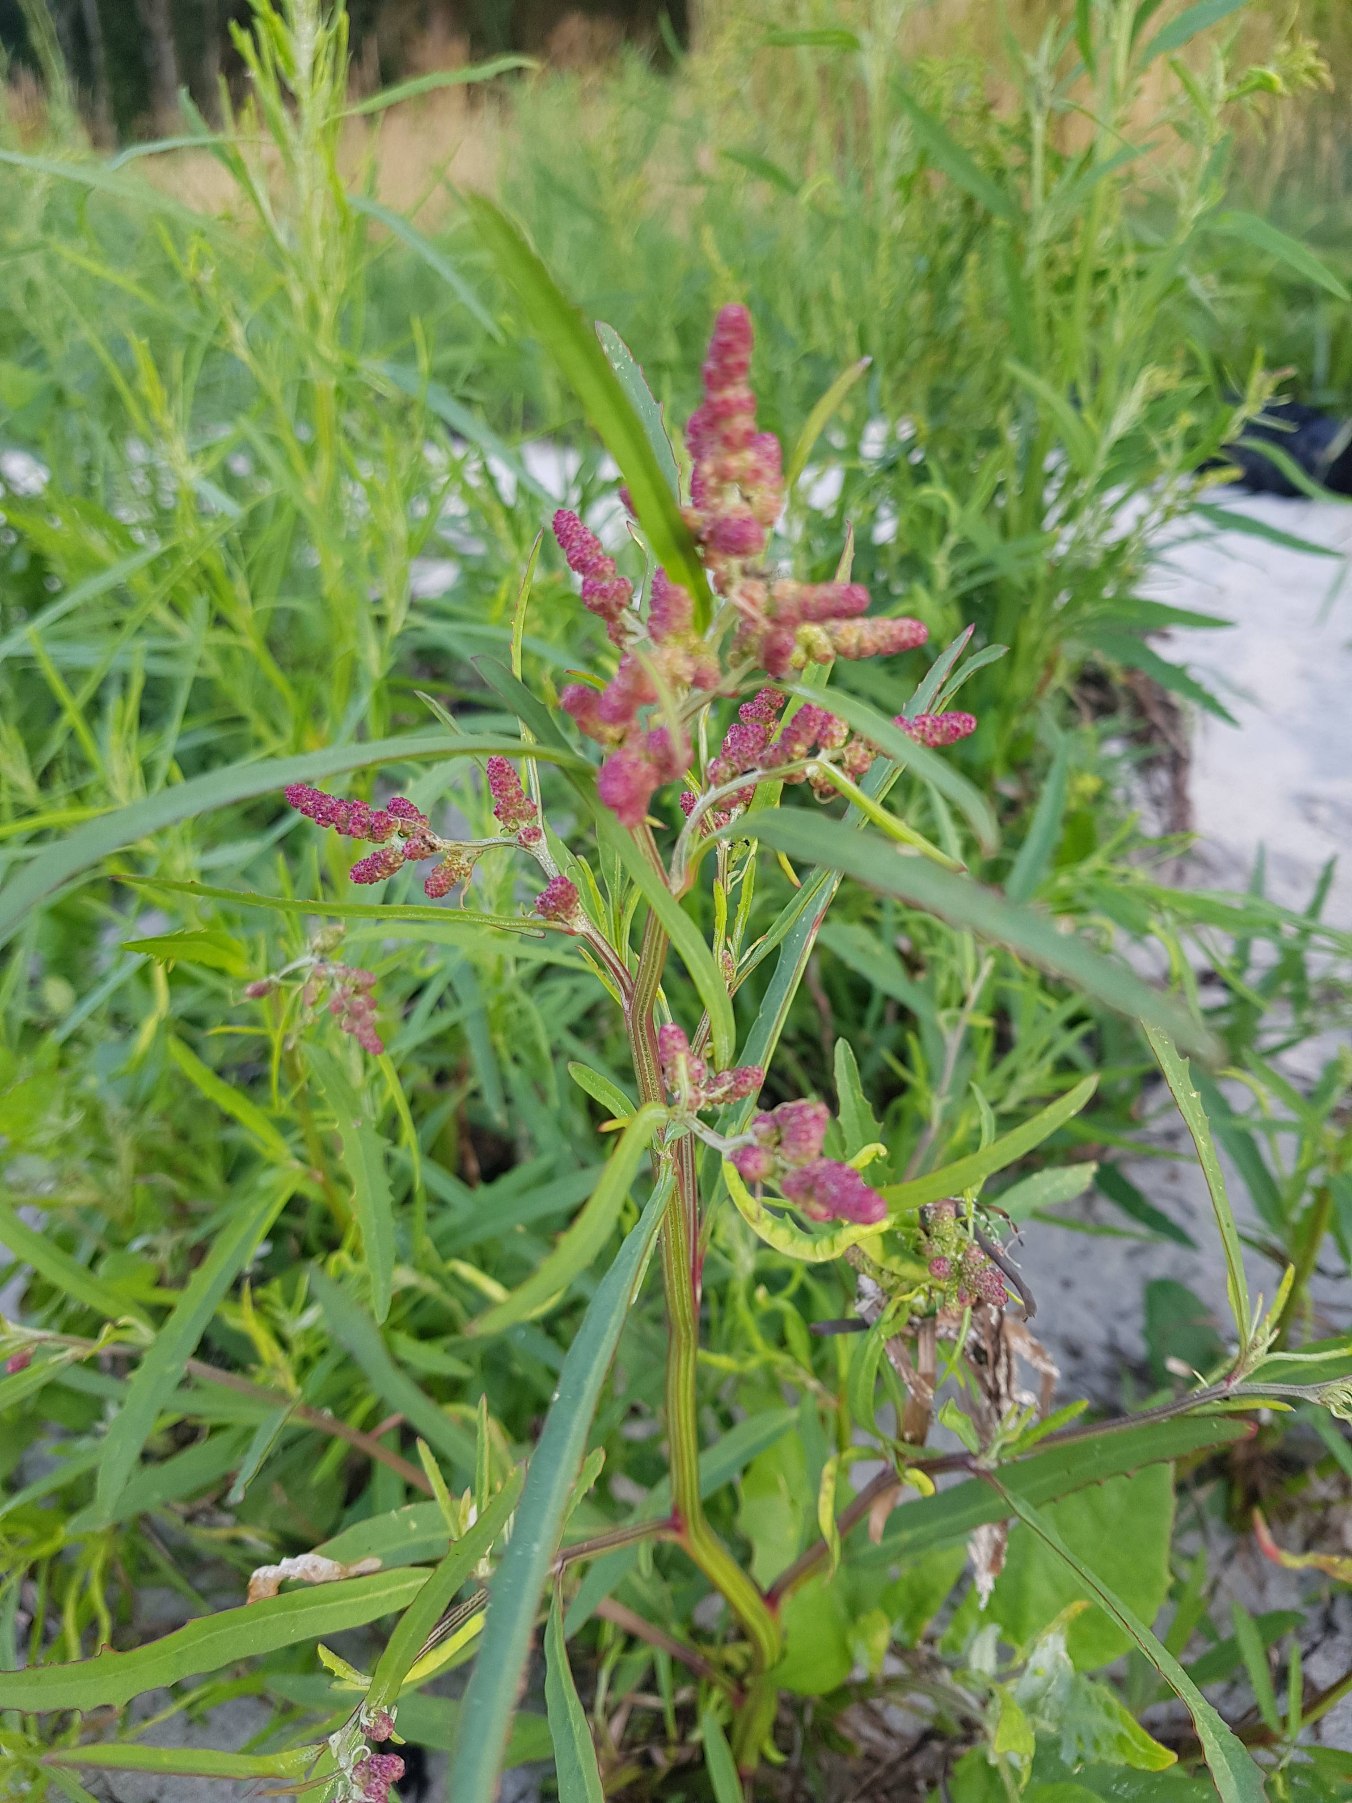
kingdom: Plantae
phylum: Tracheophyta
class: Magnoliopsida
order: Caryophyllales
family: Amaranthaceae
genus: Atriplex
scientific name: Atriplex littoralis
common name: Strand-mælde
